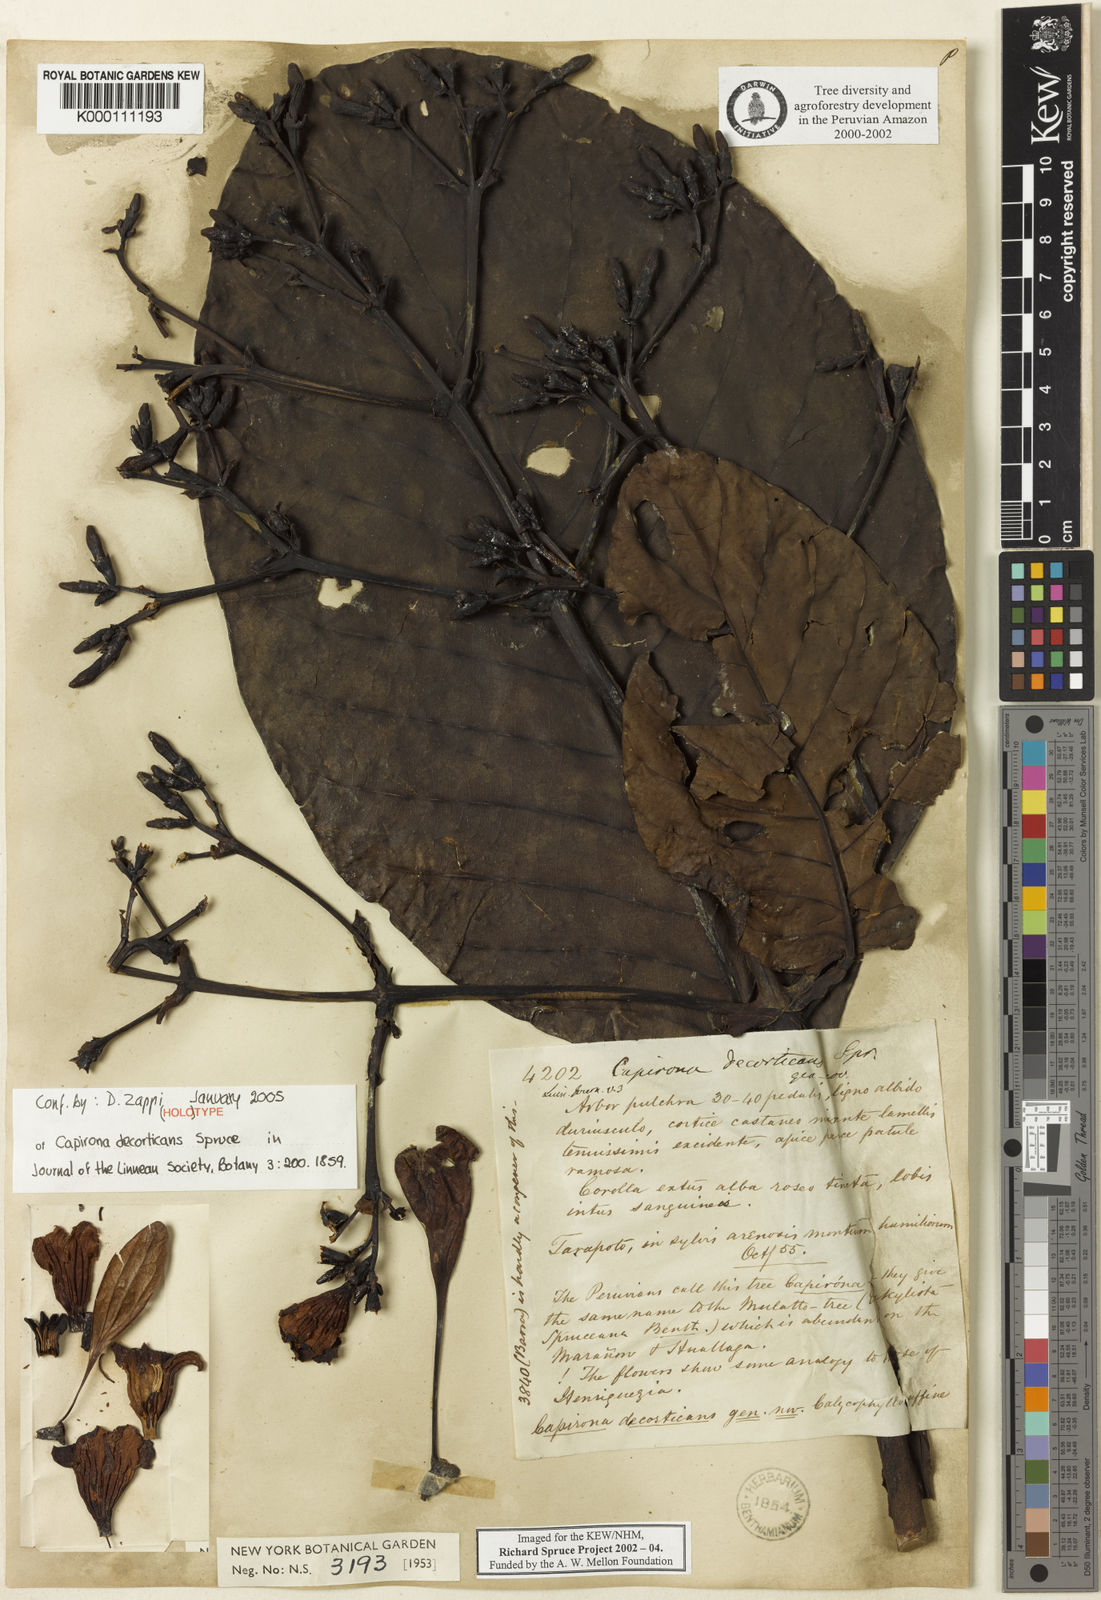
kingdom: Plantae
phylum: Tracheophyta
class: Magnoliopsida
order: Gentianales
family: Rubiaceae
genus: Capirona
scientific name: Capirona macrophylla
